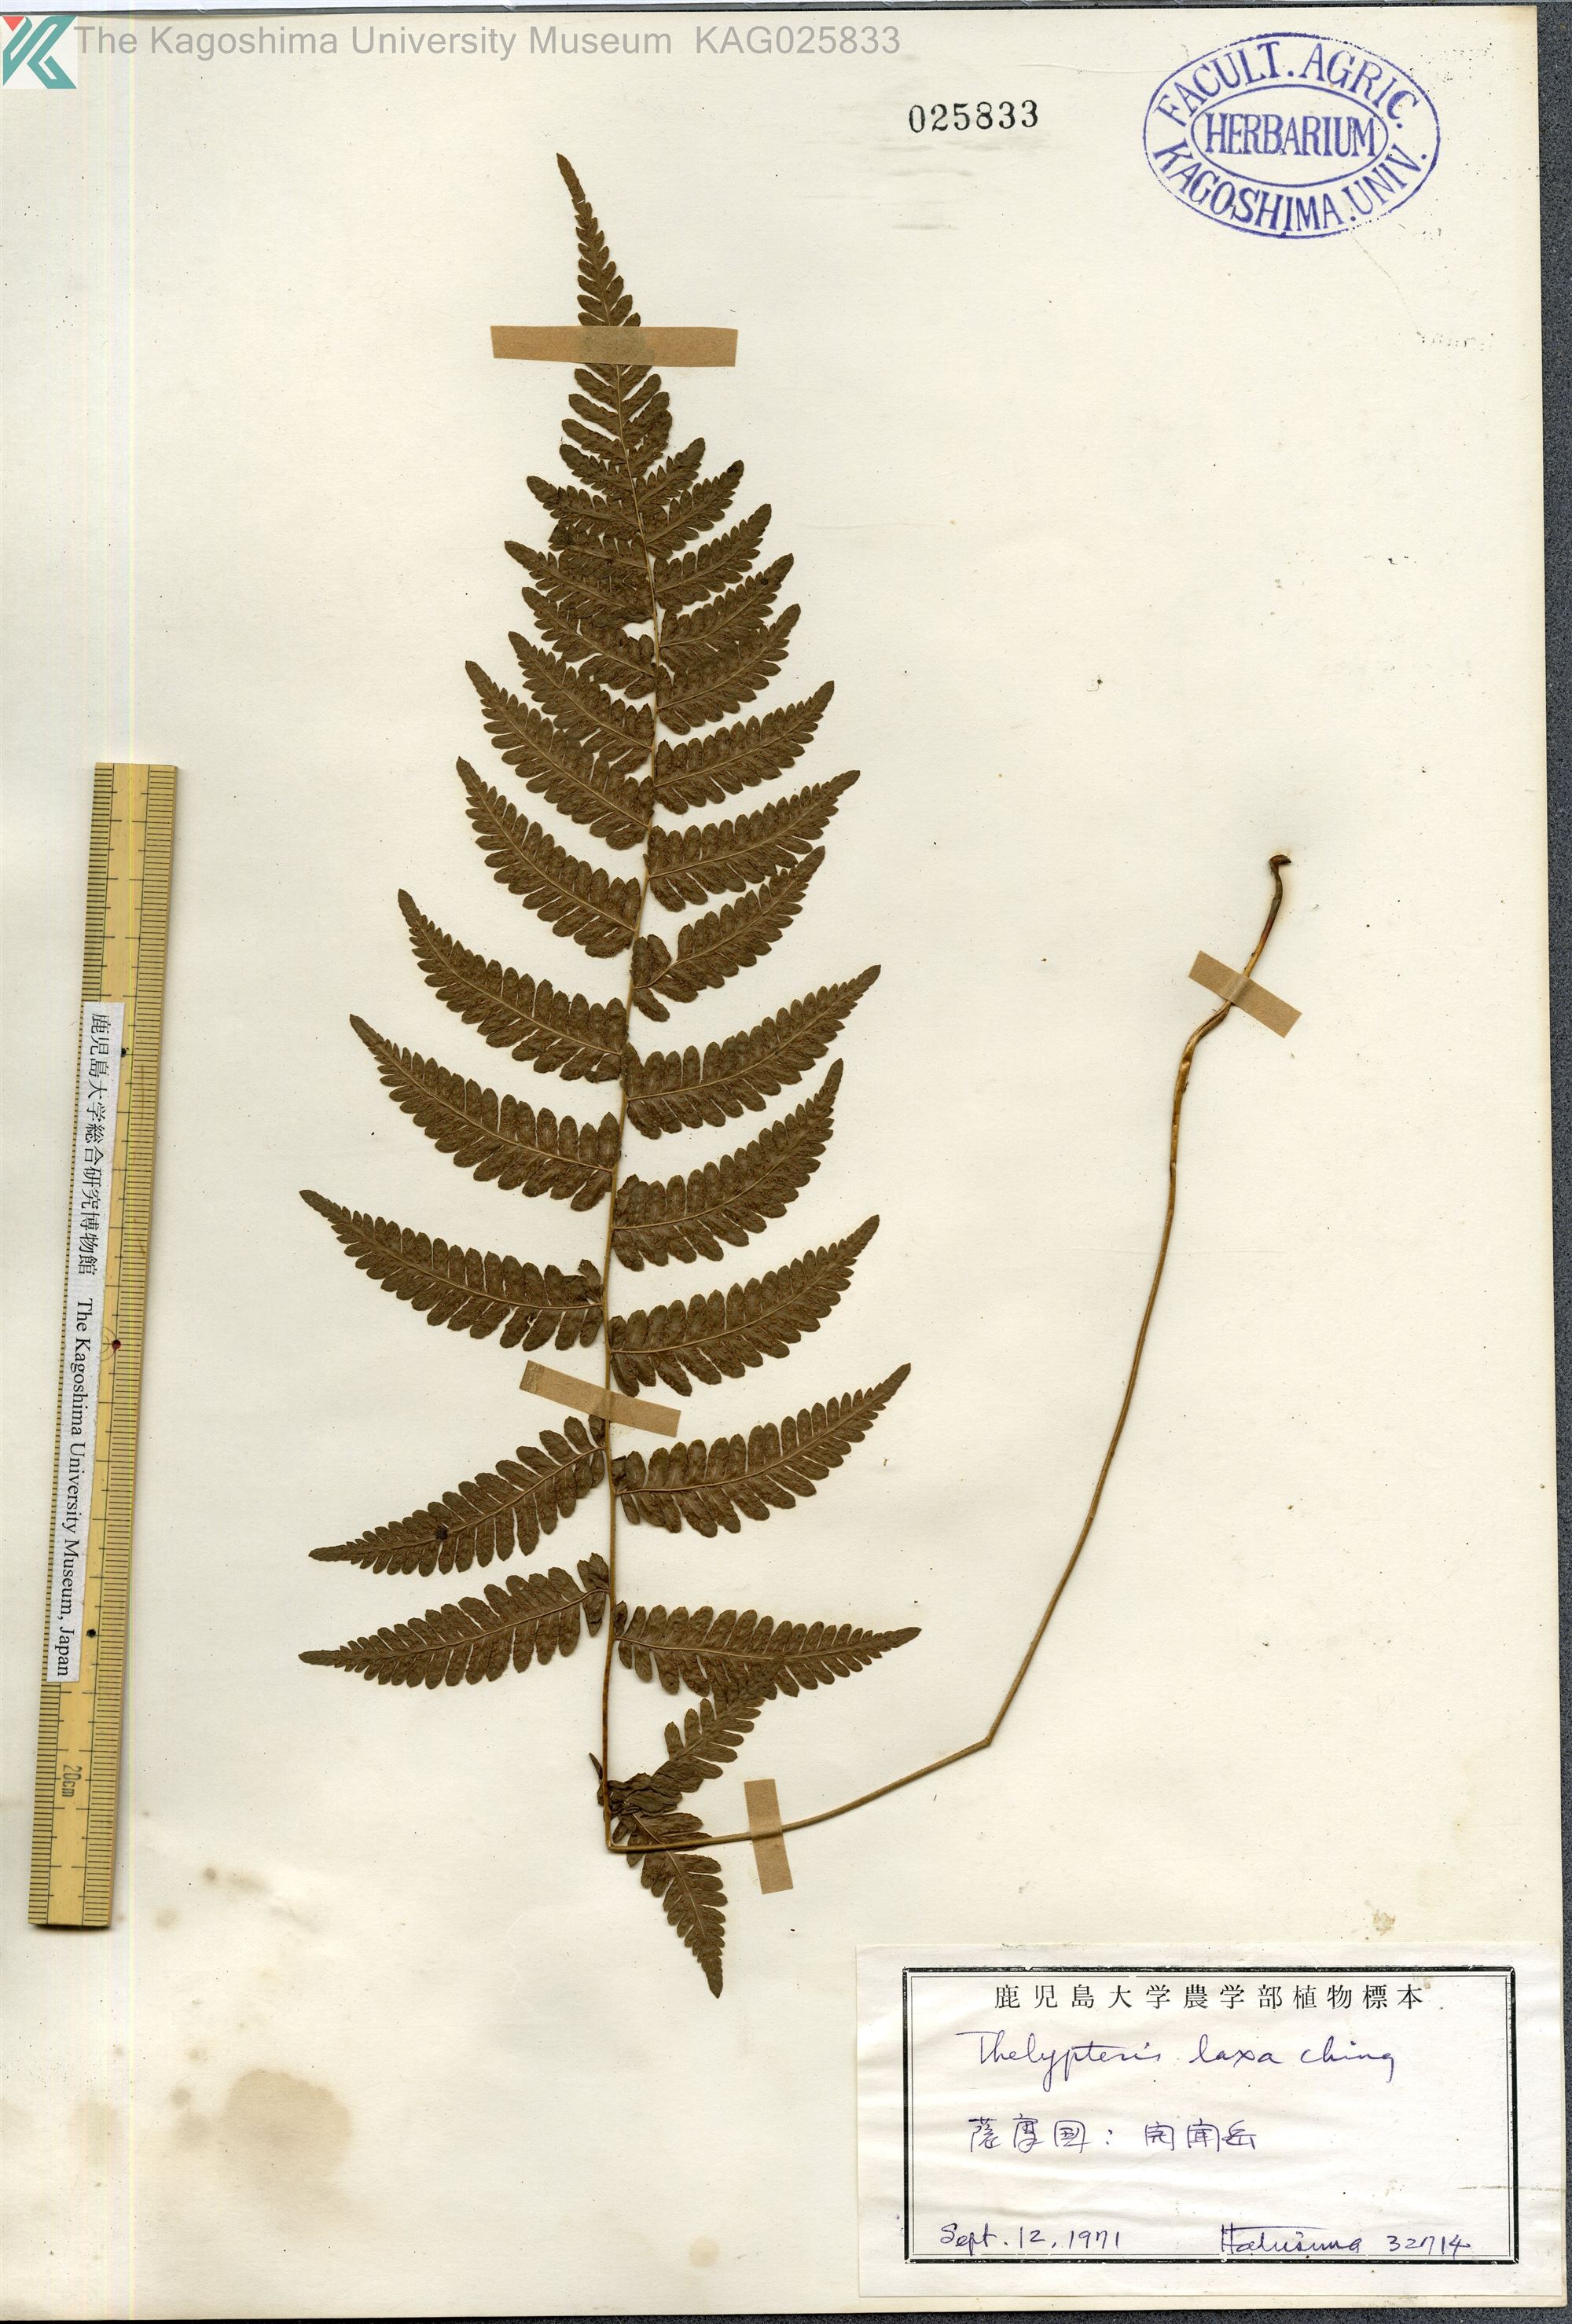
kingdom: Plantae
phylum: Tracheophyta
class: Polypodiopsida
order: Polypodiales
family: Thelypteridaceae
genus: Metathelypteris
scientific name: Metathelypteris laxa
